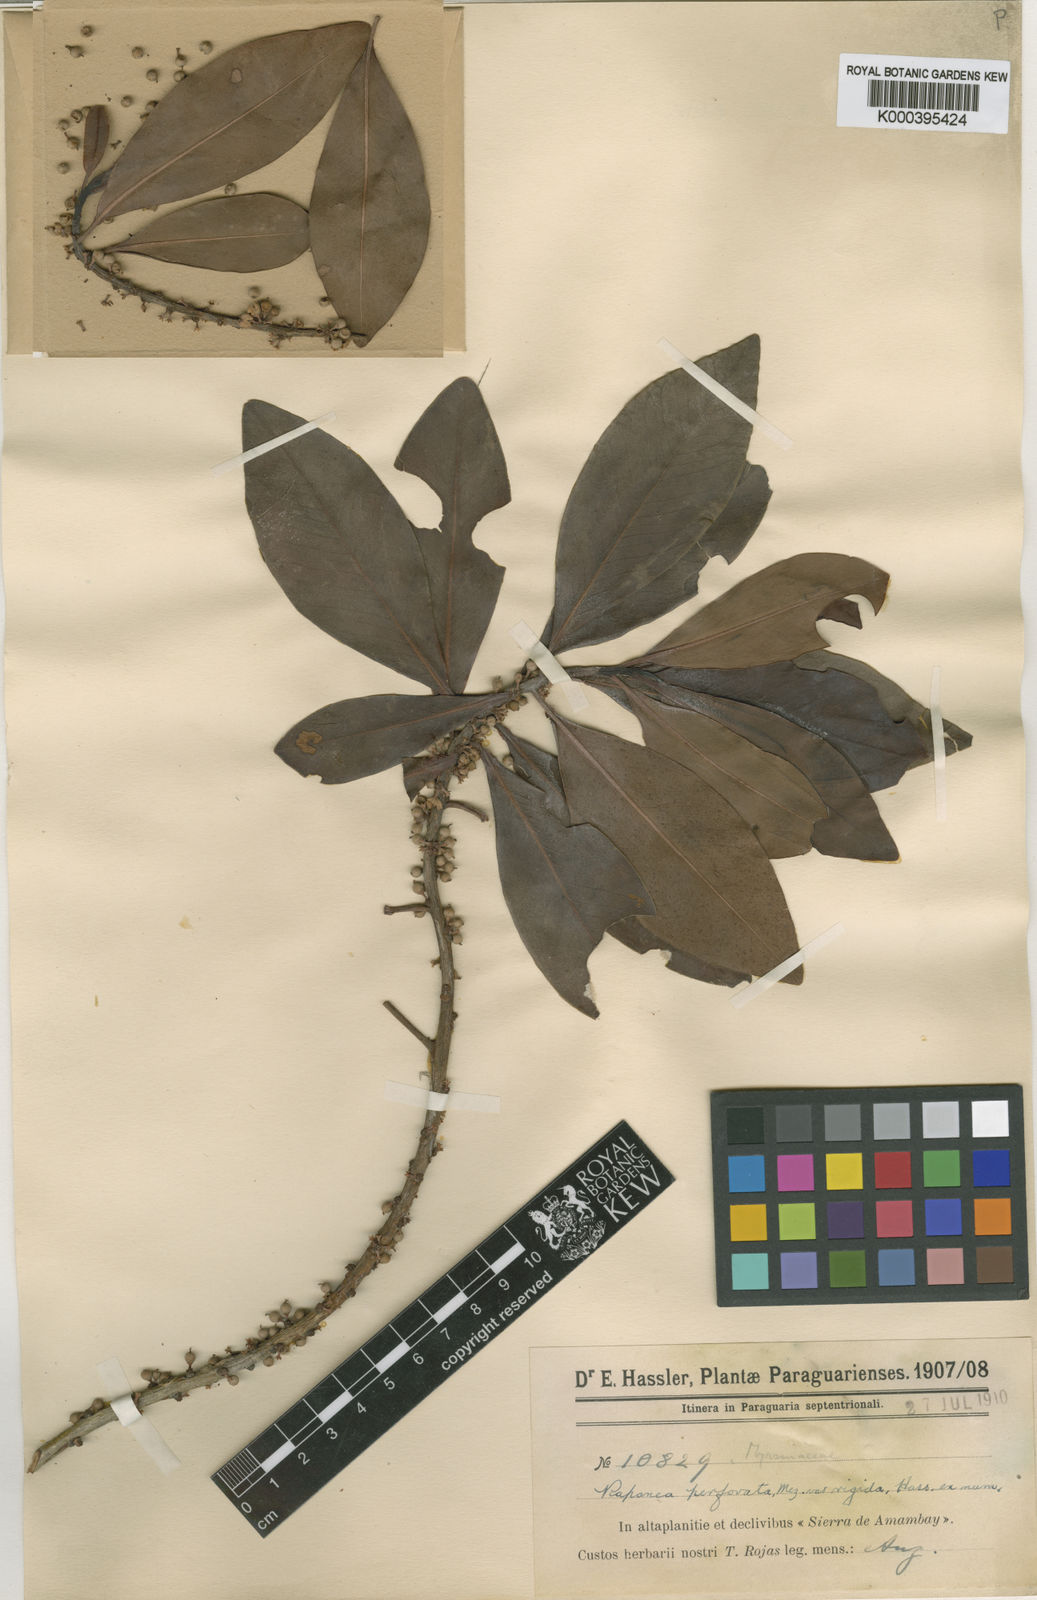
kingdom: Plantae
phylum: Tracheophyta
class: Magnoliopsida
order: Ericales
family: Primulaceae
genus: Myrsine
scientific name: Myrsine matensis
